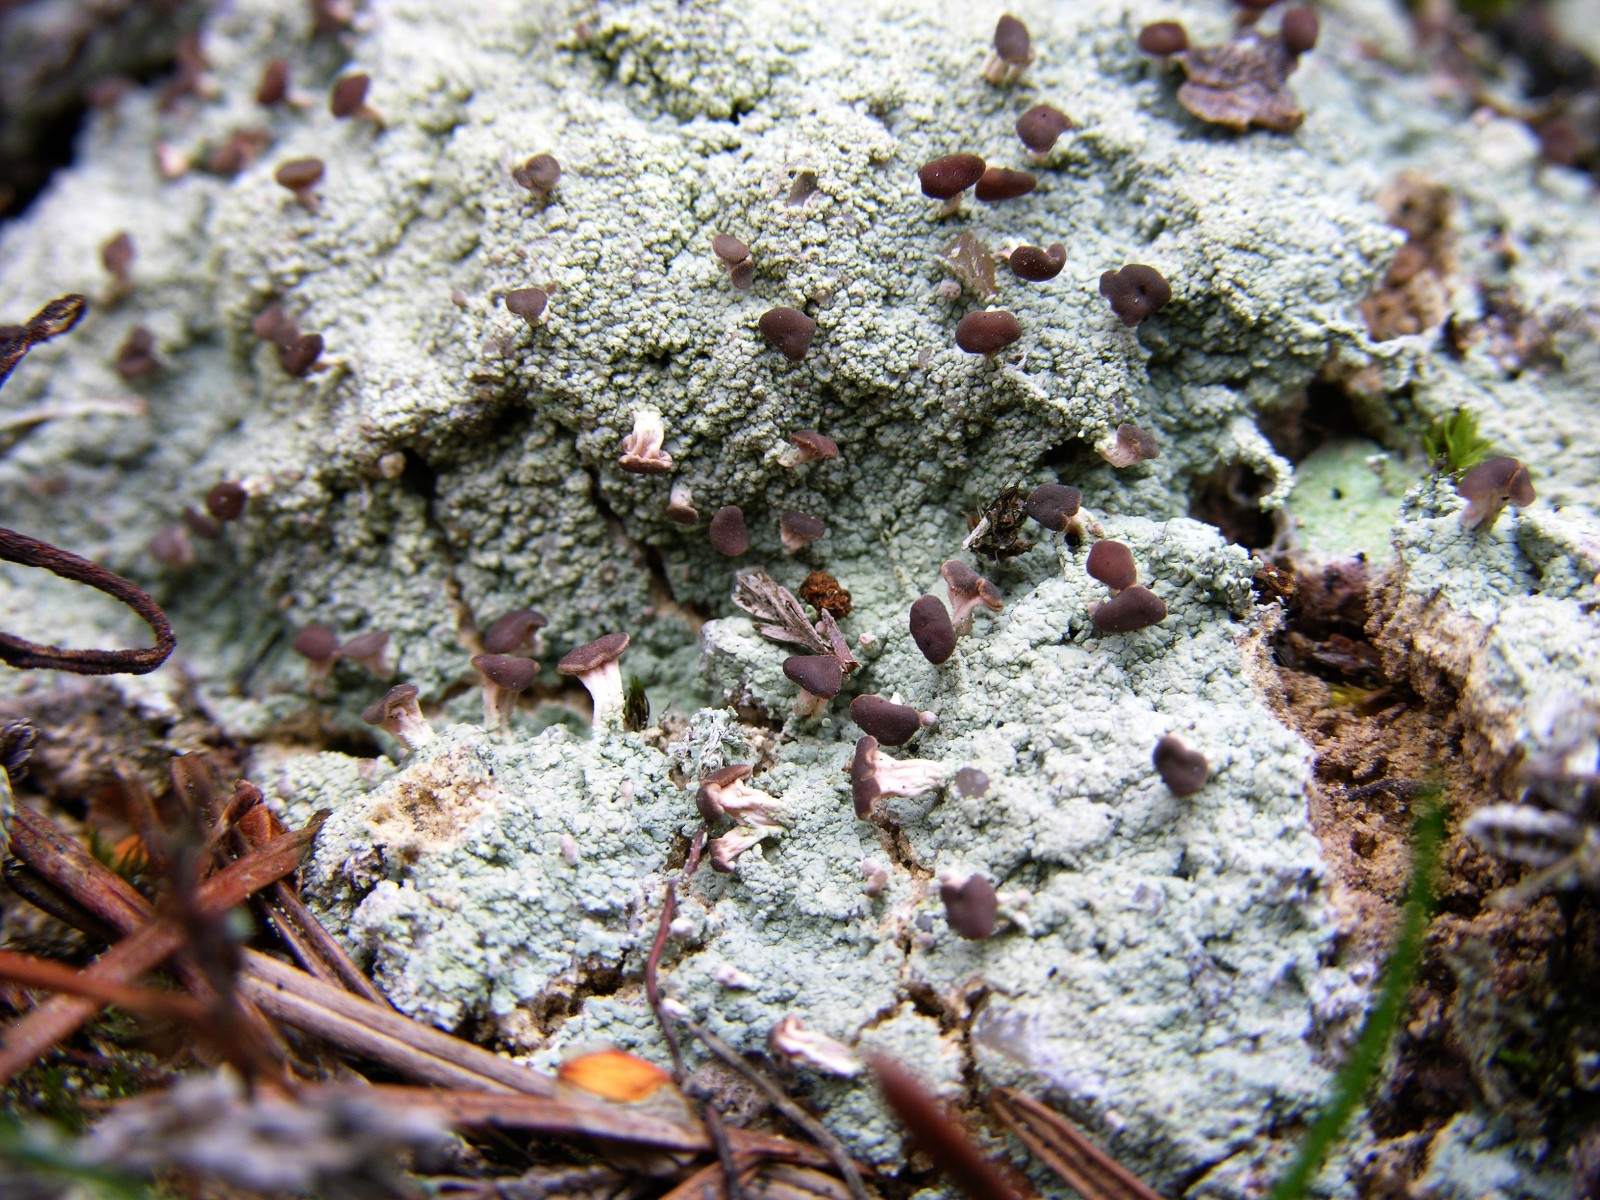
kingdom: Fungi
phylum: Ascomycota
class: Lecanoromycetes
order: Baeomycetales
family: Baeomycetaceae
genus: Baeomyces
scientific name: Baeomyces rufus
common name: rødbrun svampelav
